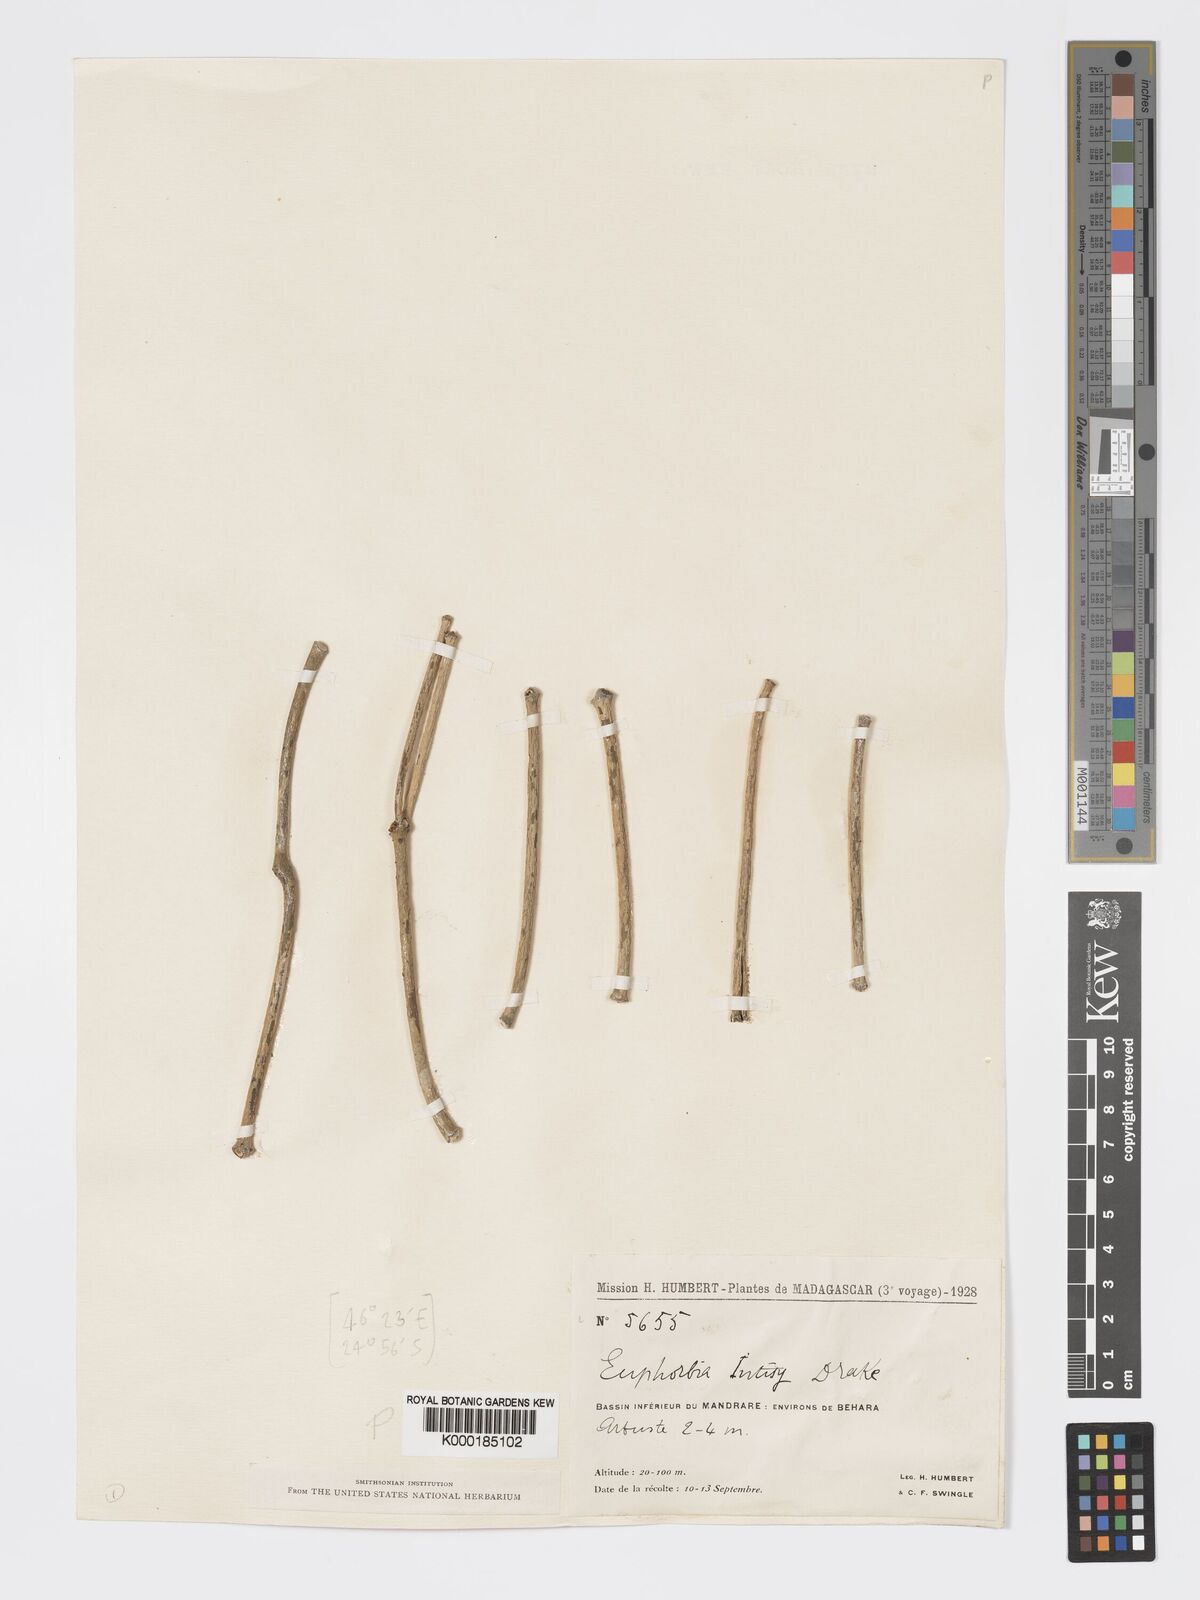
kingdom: Plantae
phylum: Tracheophyta
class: Magnoliopsida
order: Malpighiales
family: Euphorbiaceae
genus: Euphorbia
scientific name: Euphorbia intisy
